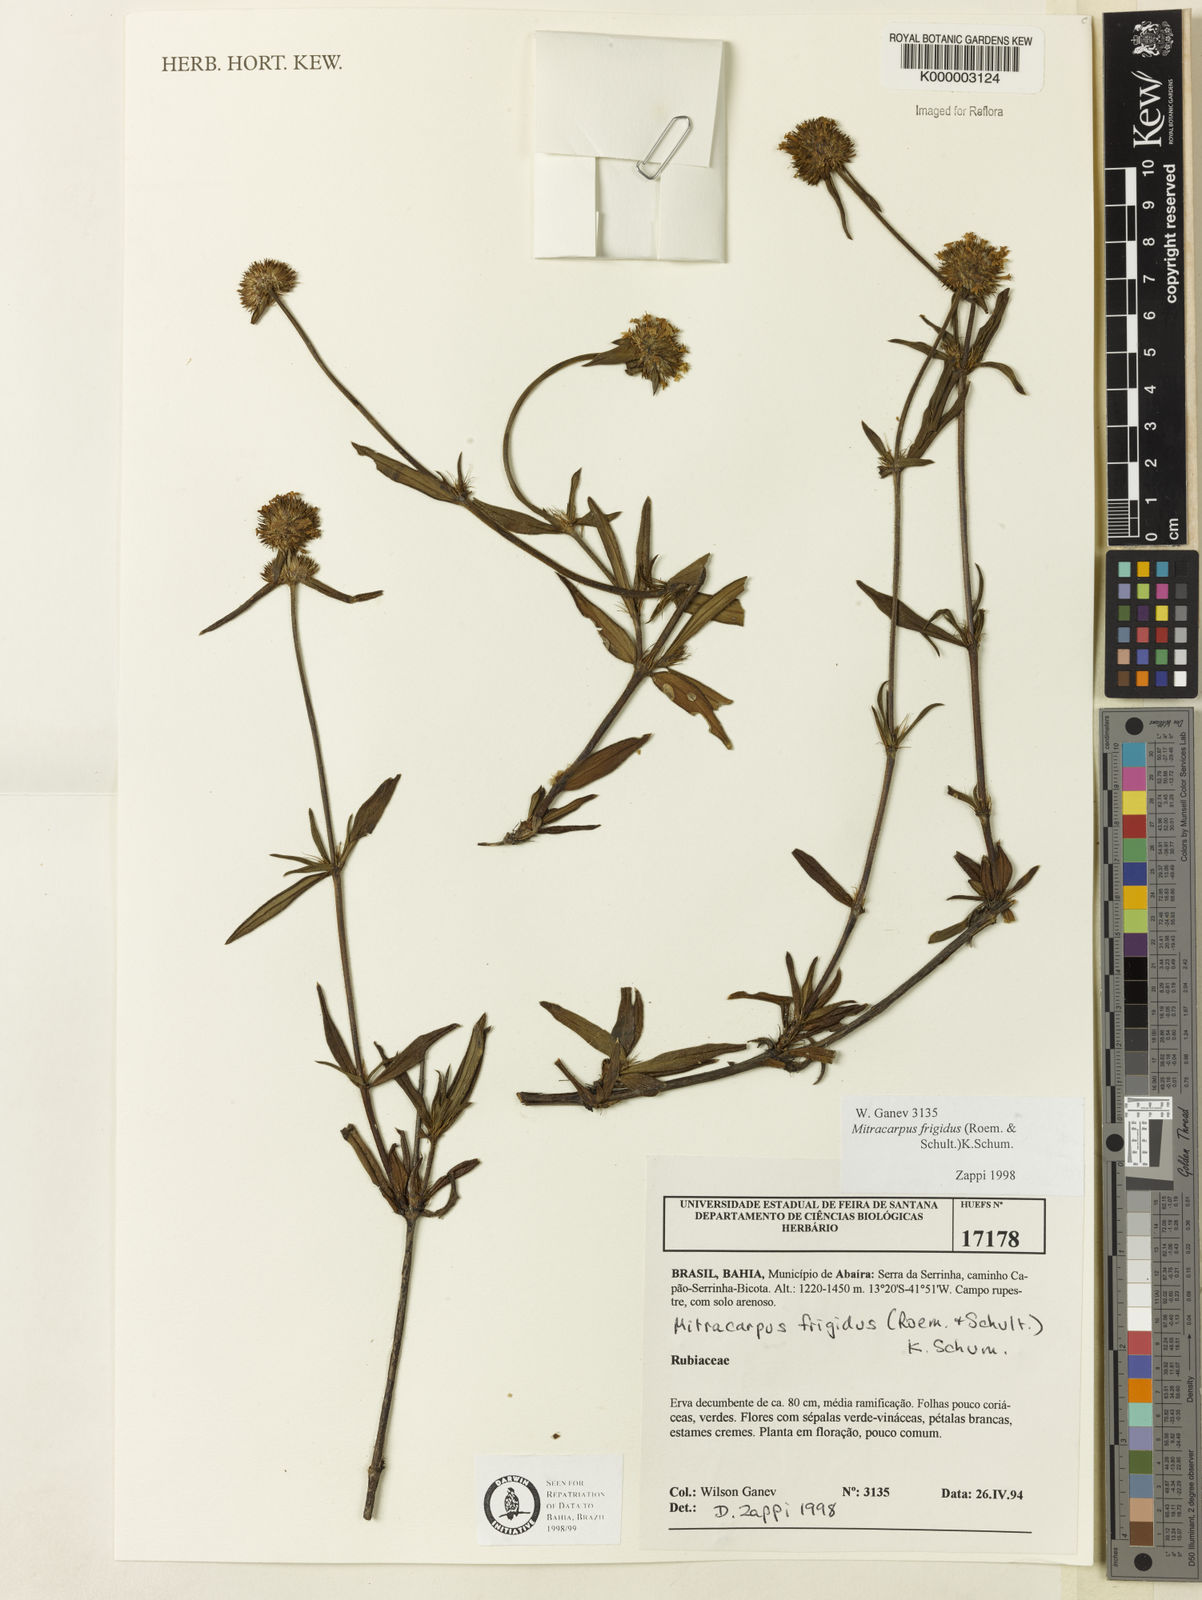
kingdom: Plantae
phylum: Tracheophyta
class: Magnoliopsida
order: Gentianales
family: Rubiaceae
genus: Mitracarpus
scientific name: Mitracarpus frigidus
